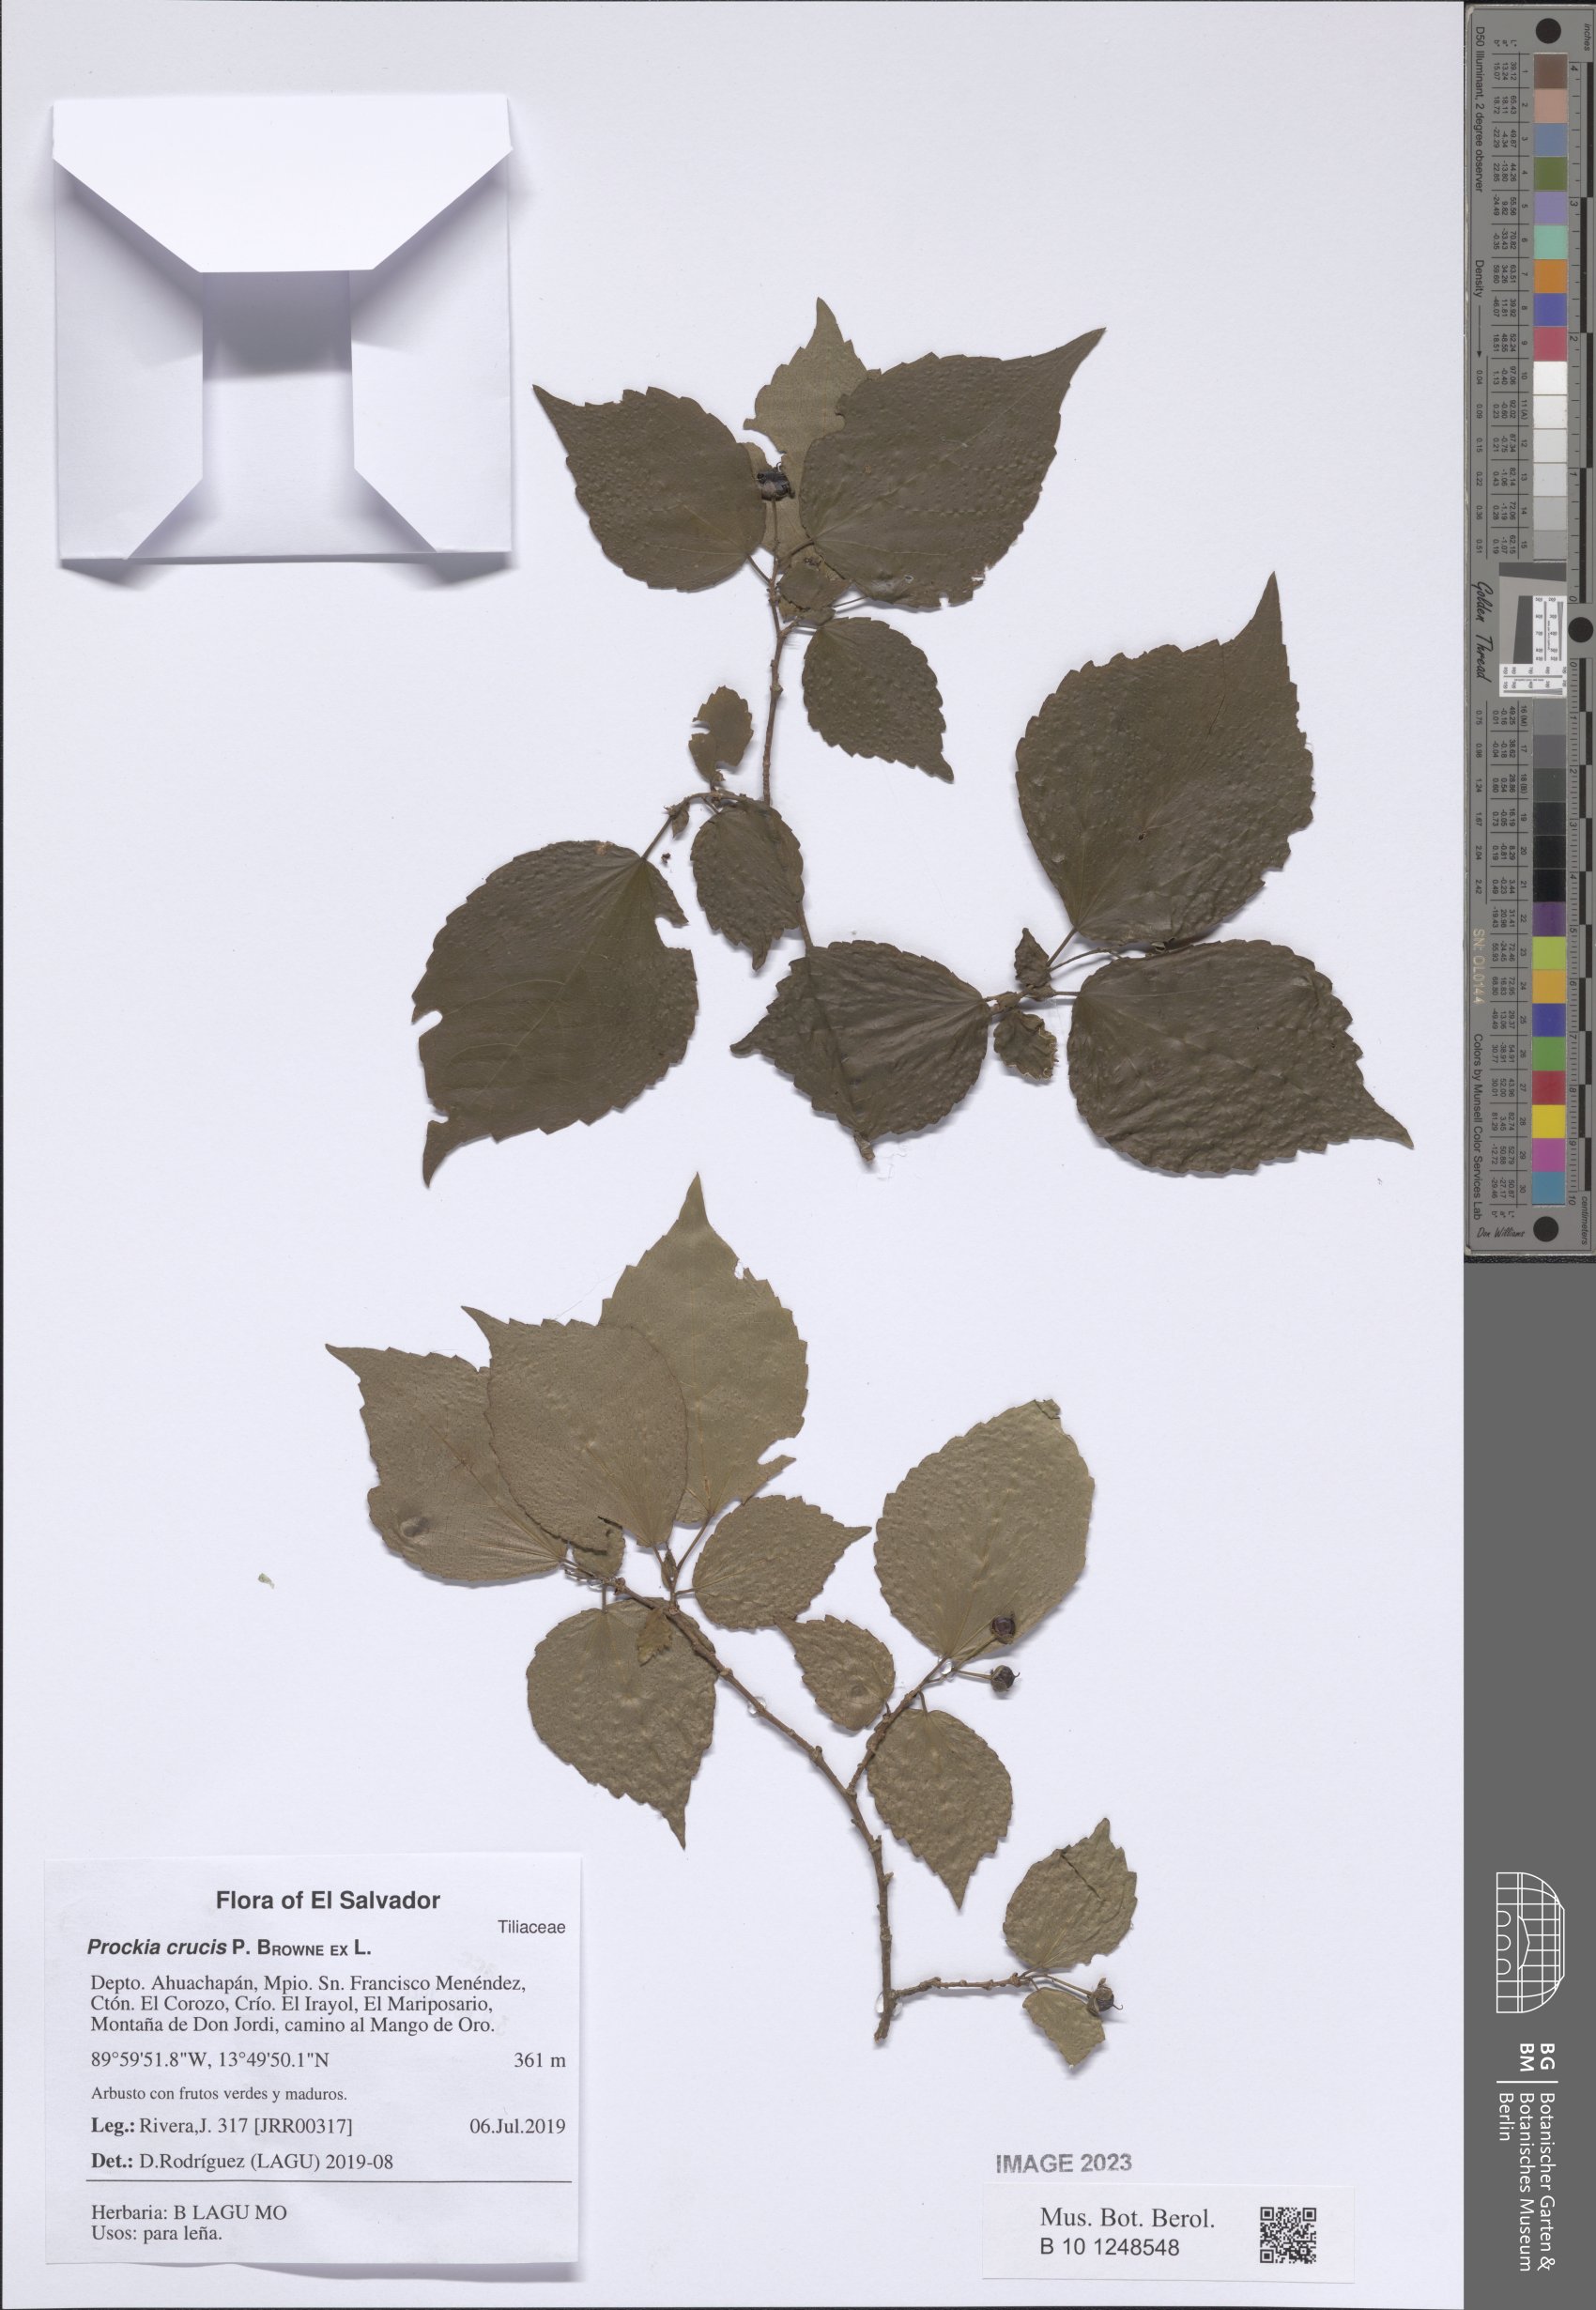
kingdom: Plantae
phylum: Tracheophyta
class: Magnoliopsida
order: Malpighiales
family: Salicaceae
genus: Prockia
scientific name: Prockia crucis
